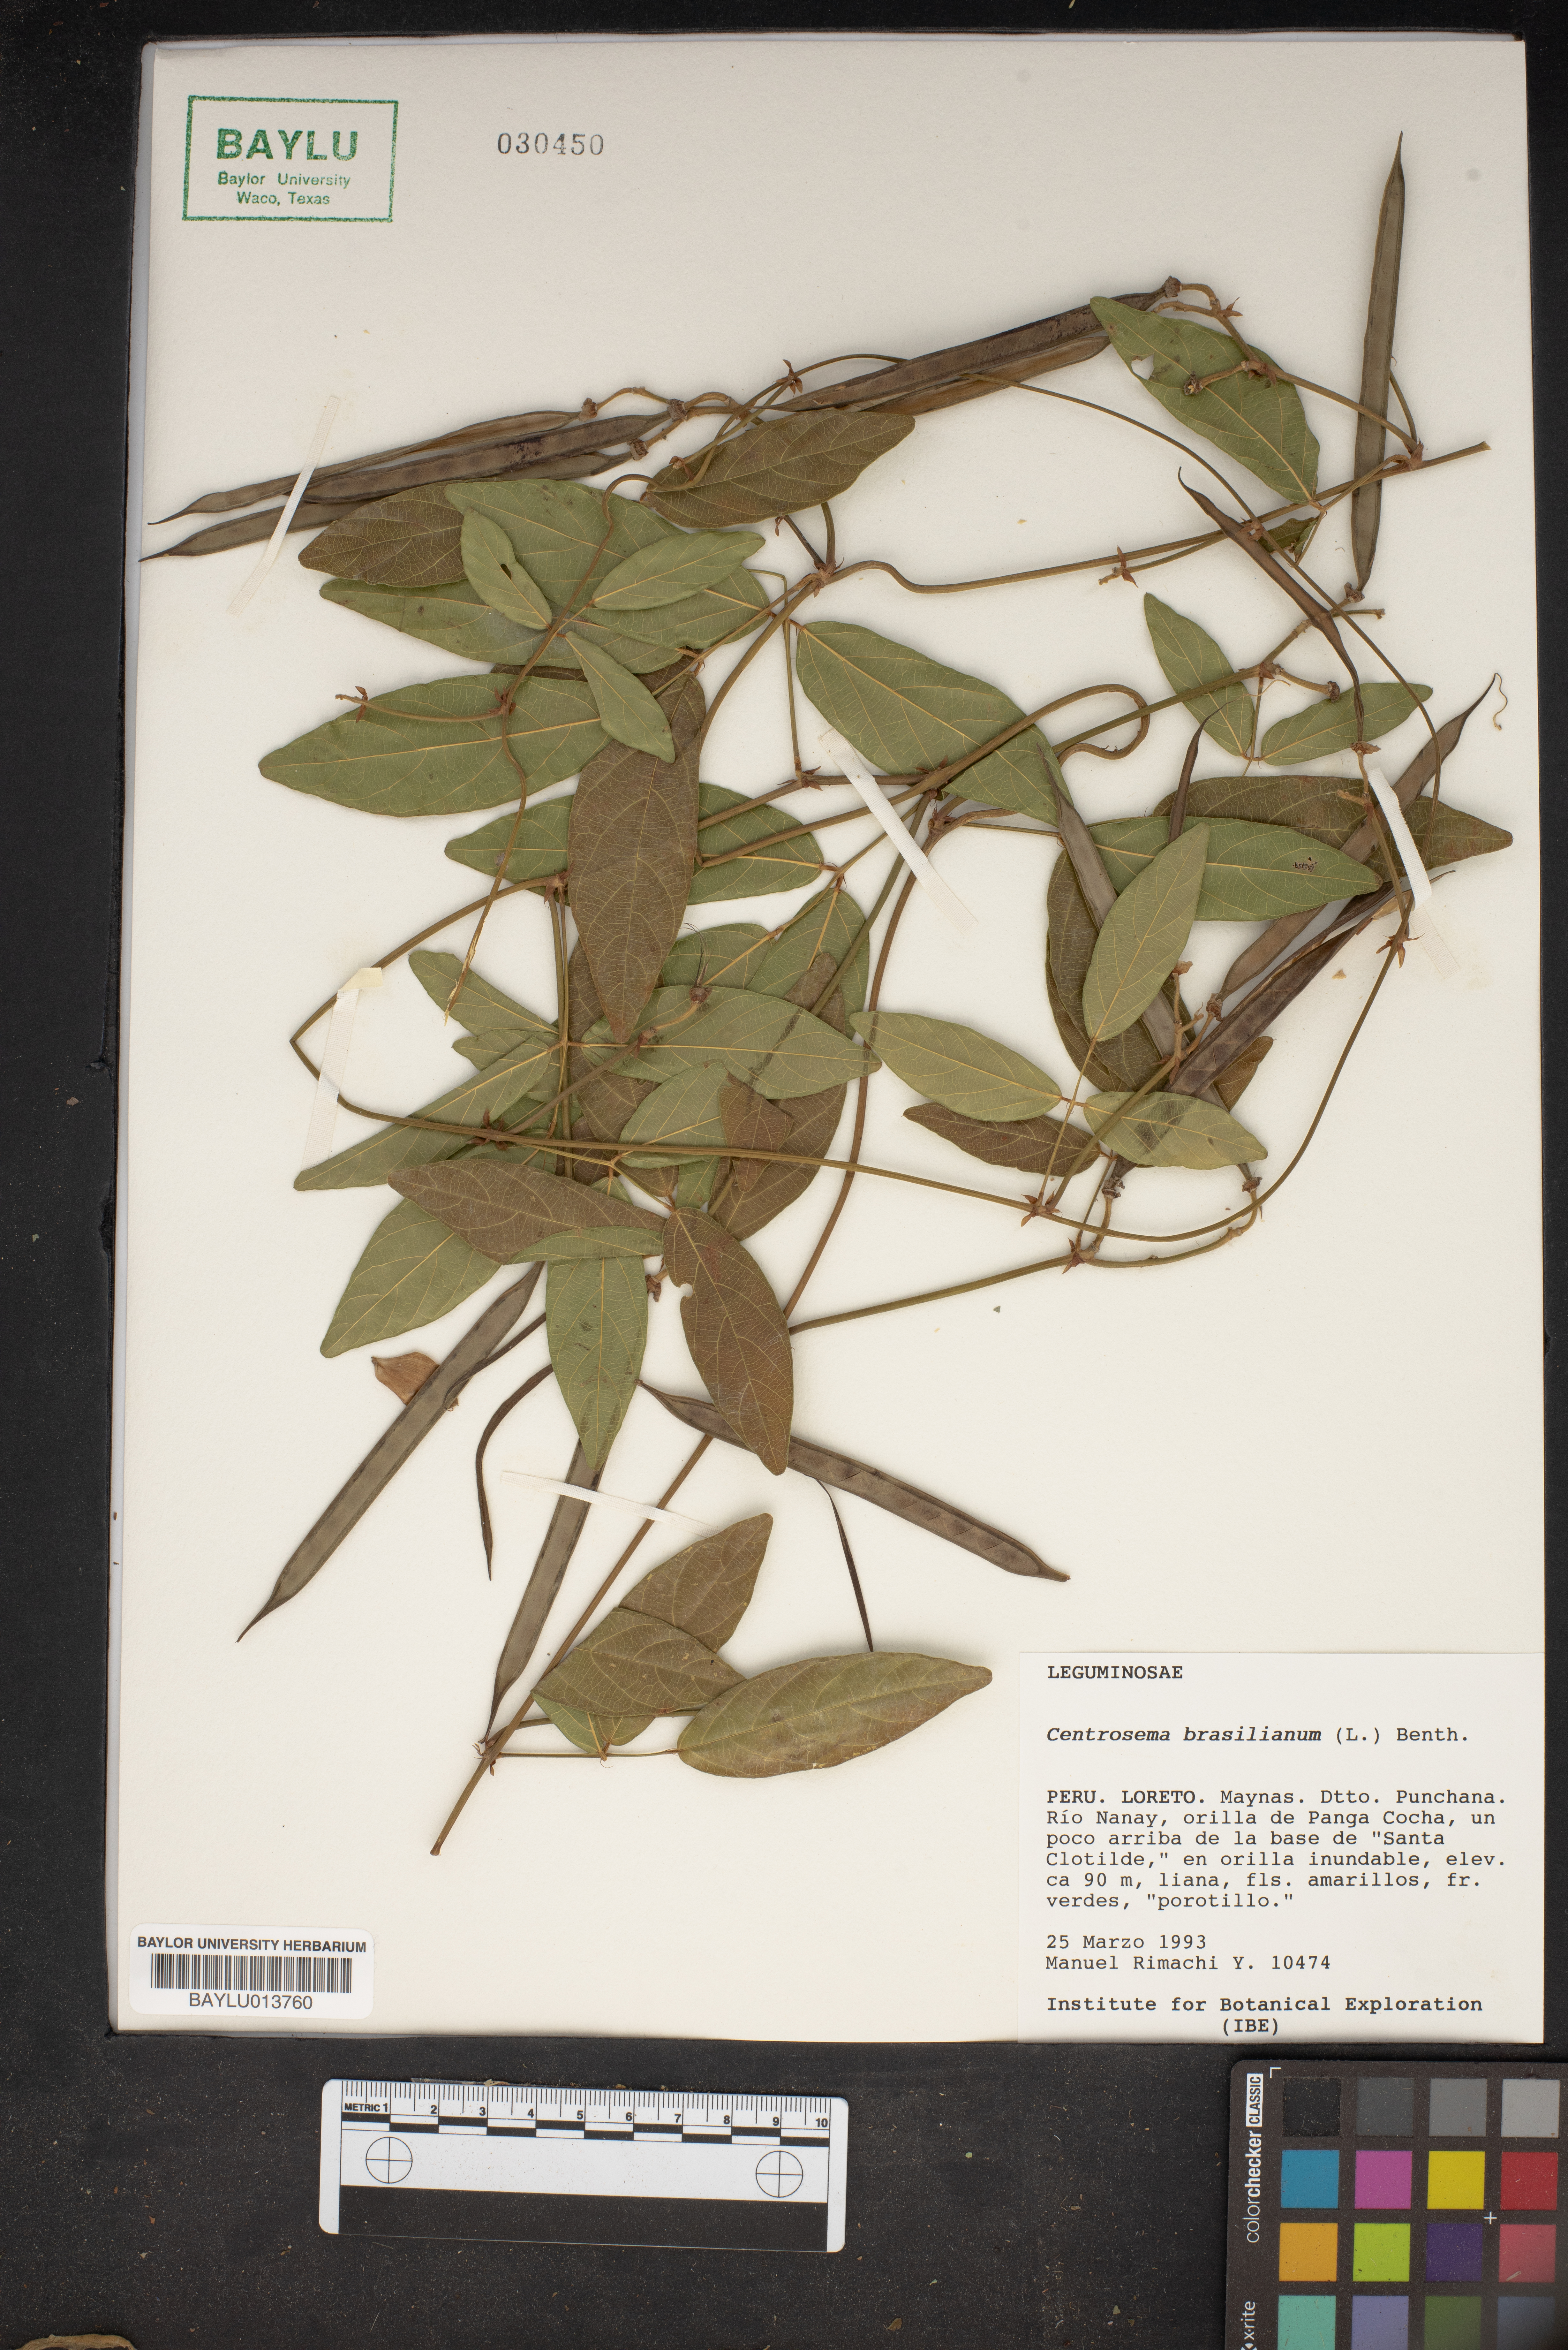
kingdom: Plantae
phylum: Tracheophyta
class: Magnoliopsida
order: Fabales
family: Fabaceae
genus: Centrosema
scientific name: Centrosema brasilianum
